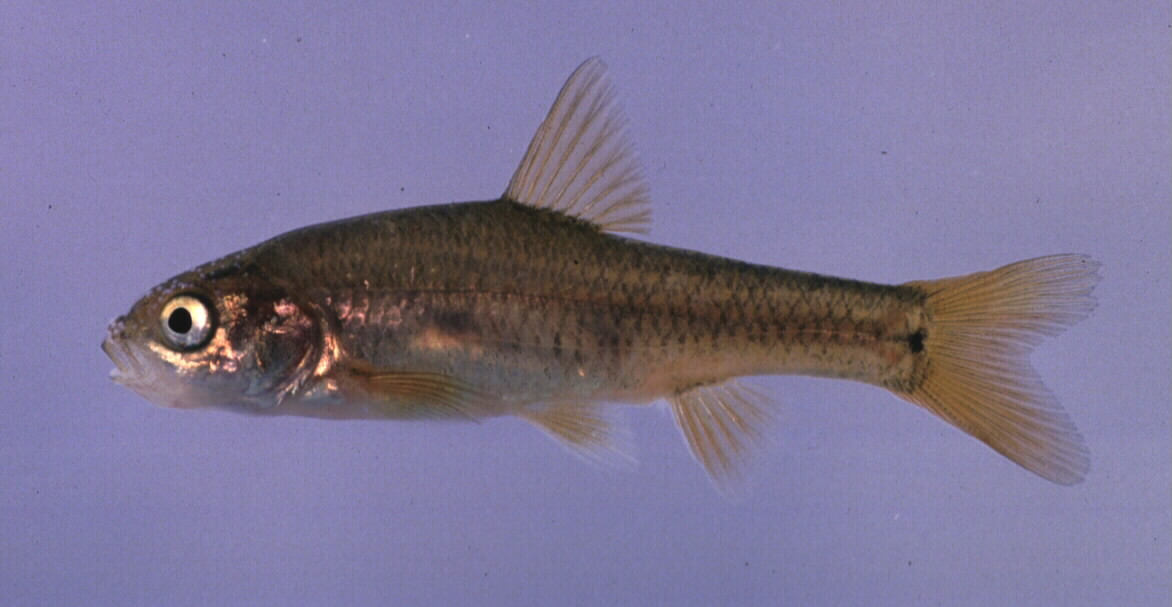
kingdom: Animalia
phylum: Chordata
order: Cypriniformes
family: Cyprinidae
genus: Enteromius
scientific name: Enteromius gurneyi
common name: Redtail barb
